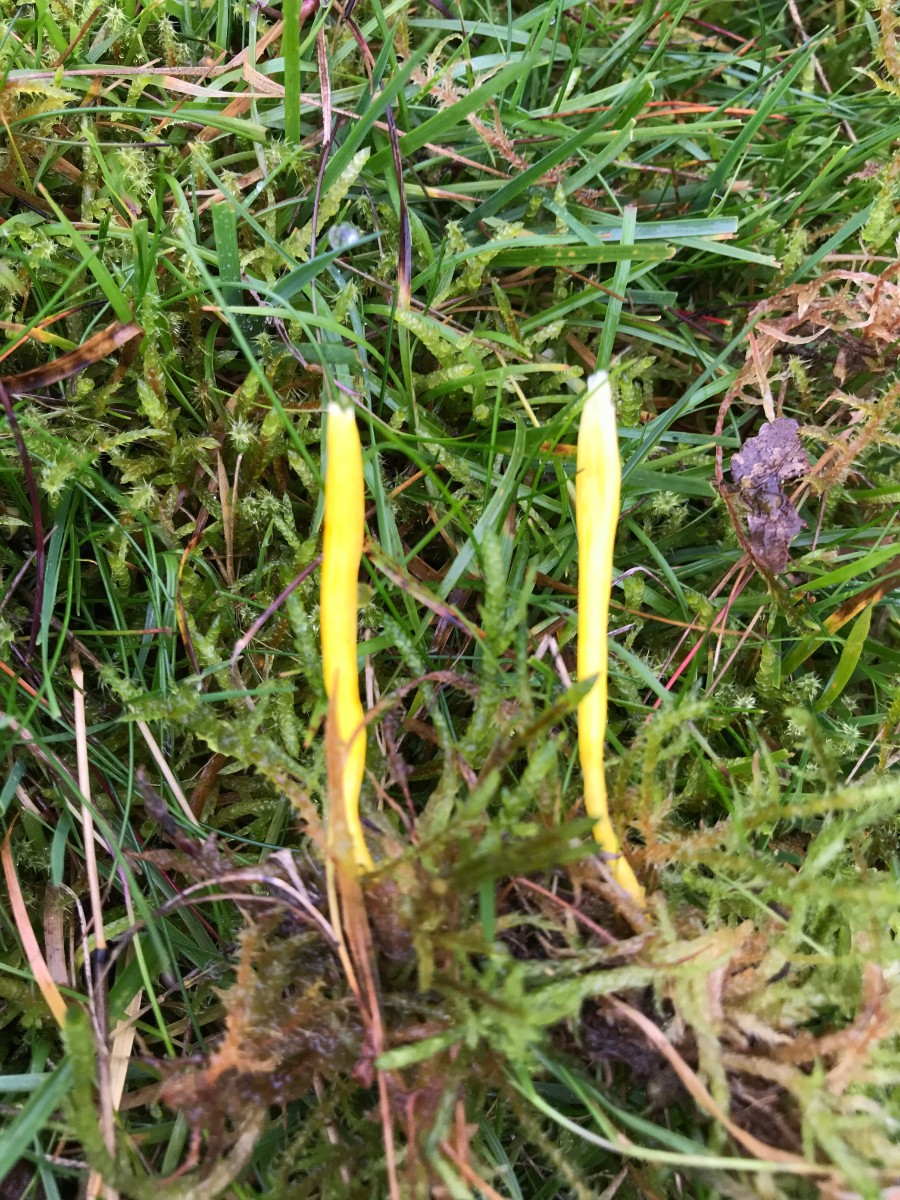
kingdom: Fungi
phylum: Basidiomycota
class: Agaricomycetes
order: Agaricales
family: Clavariaceae
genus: Clavulinopsis
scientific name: Clavulinopsis helvola
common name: orangegul køllesvamp
